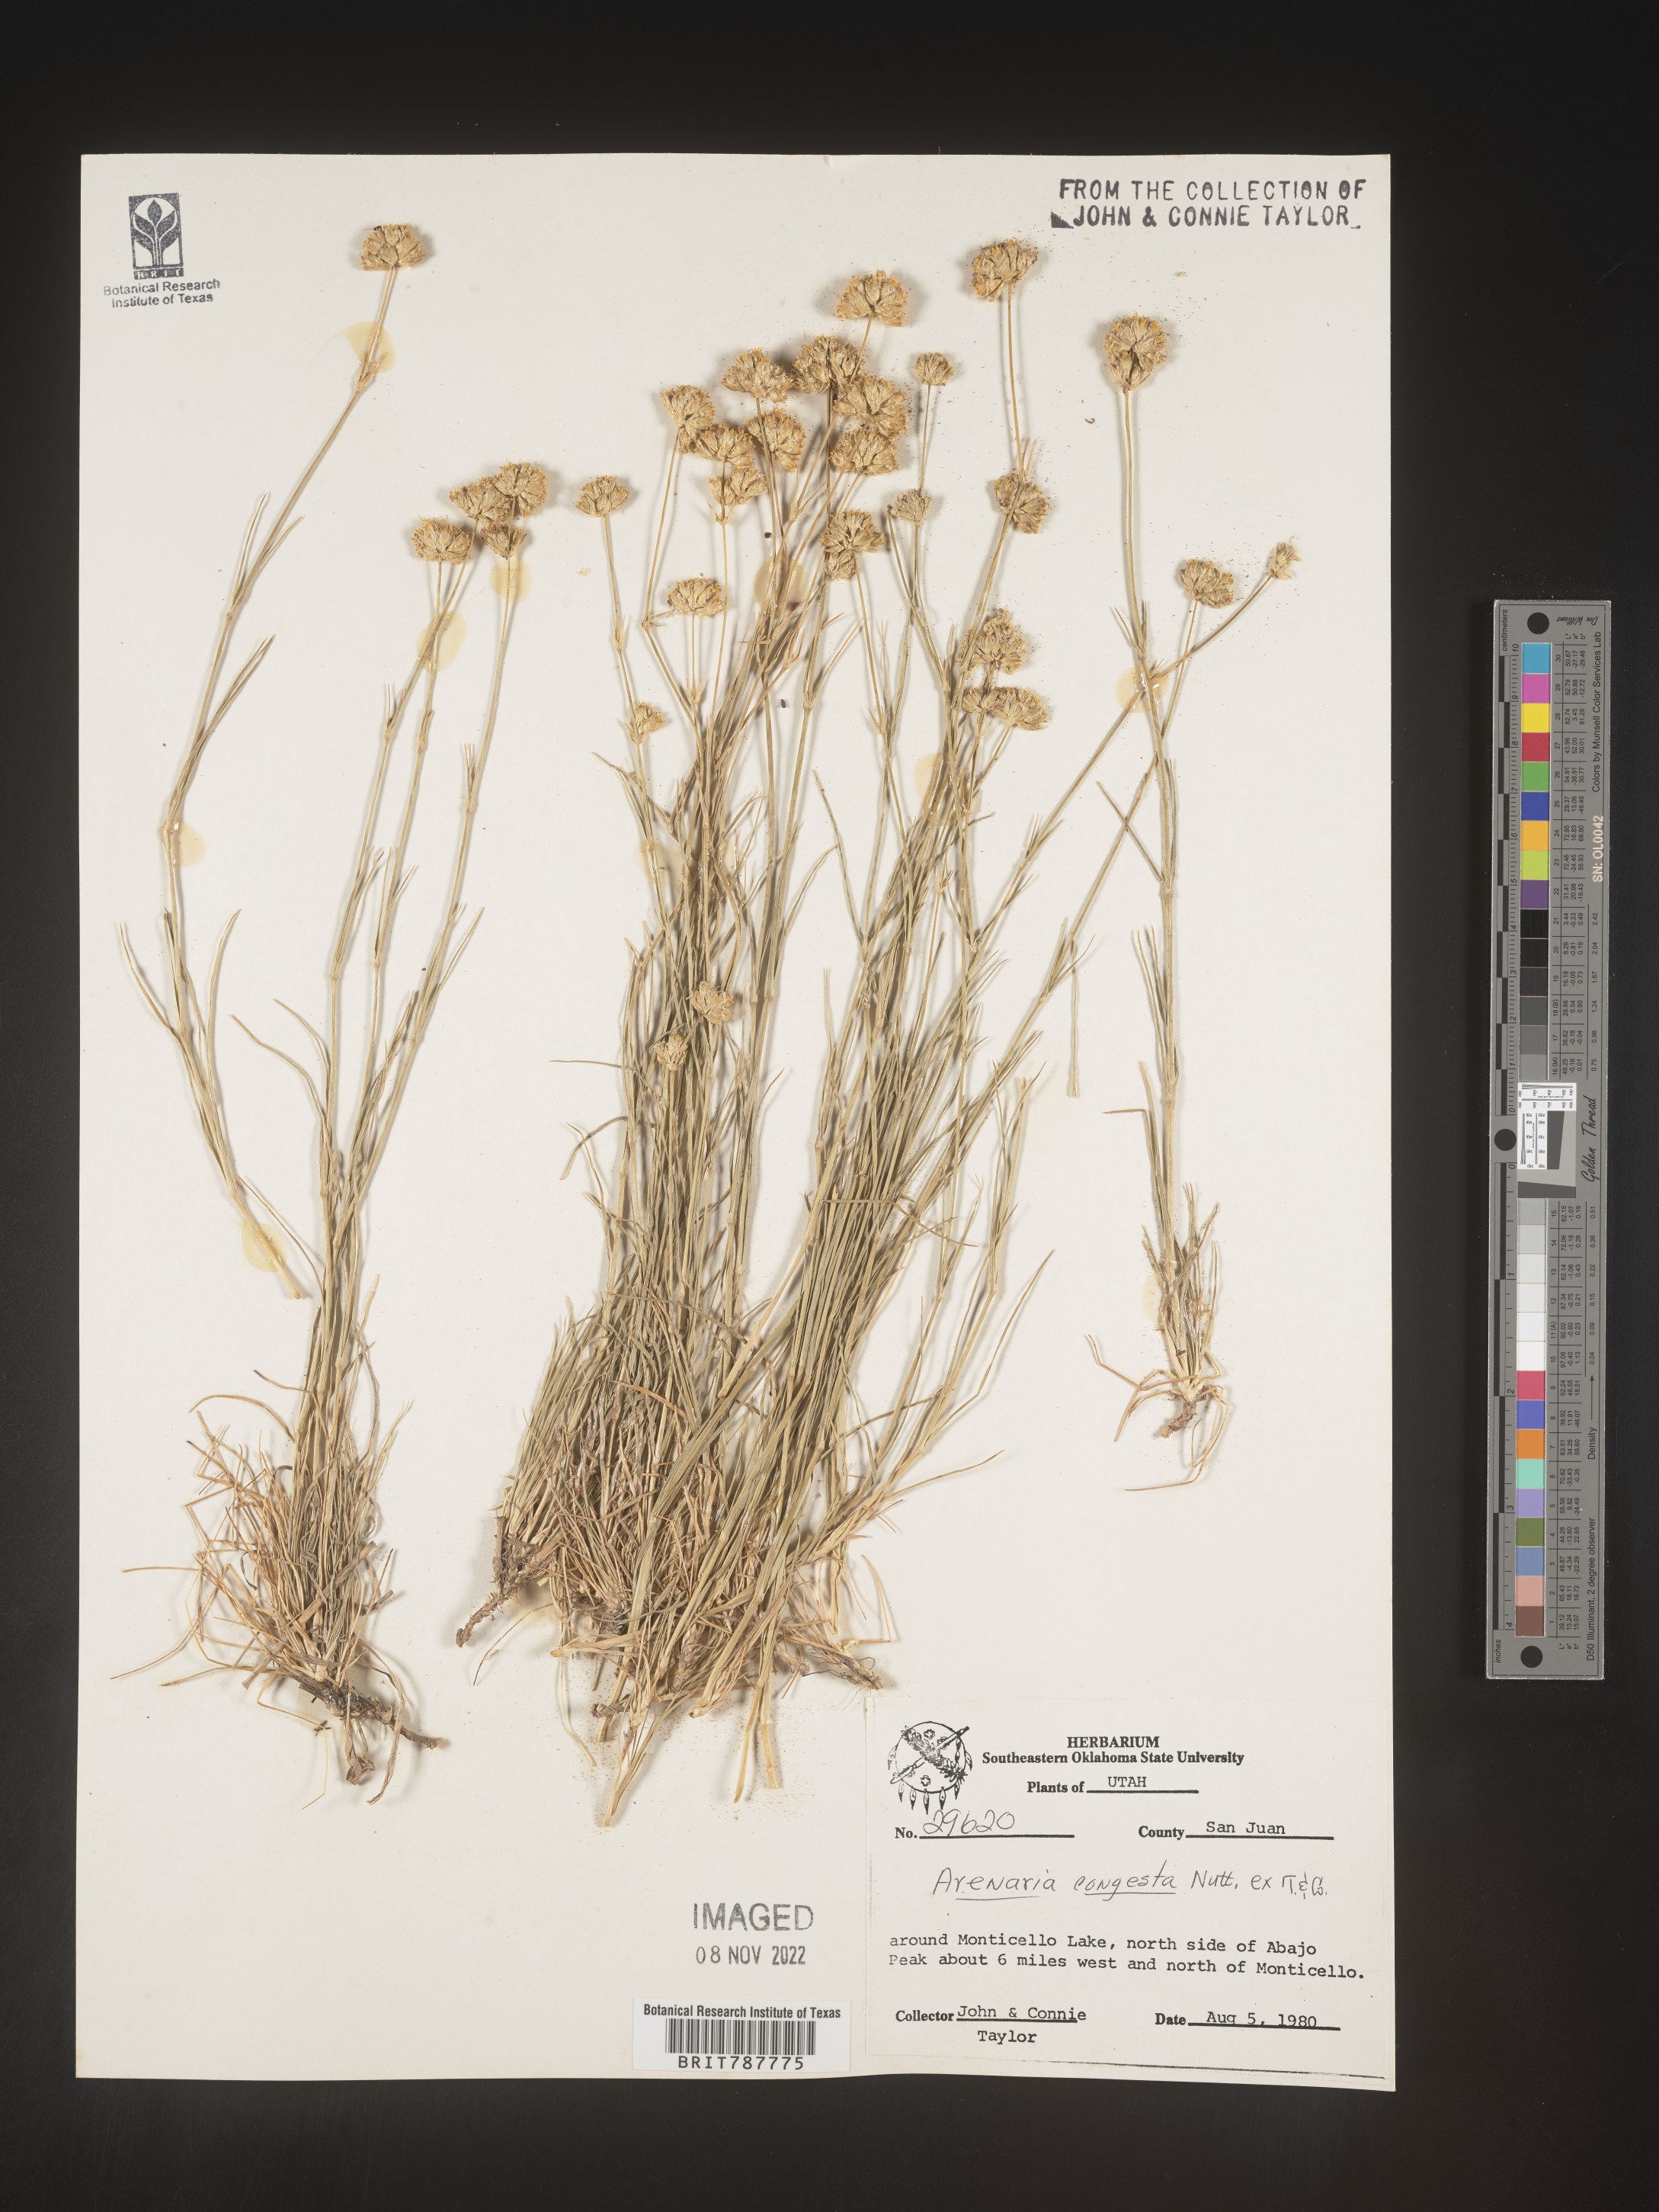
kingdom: Plantae
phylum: Tracheophyta
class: Magnoliopsida
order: Caryophyllales
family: Caryophyllaceae
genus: Eremogone
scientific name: Eremogone congesta
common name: Ballhead sandwort
